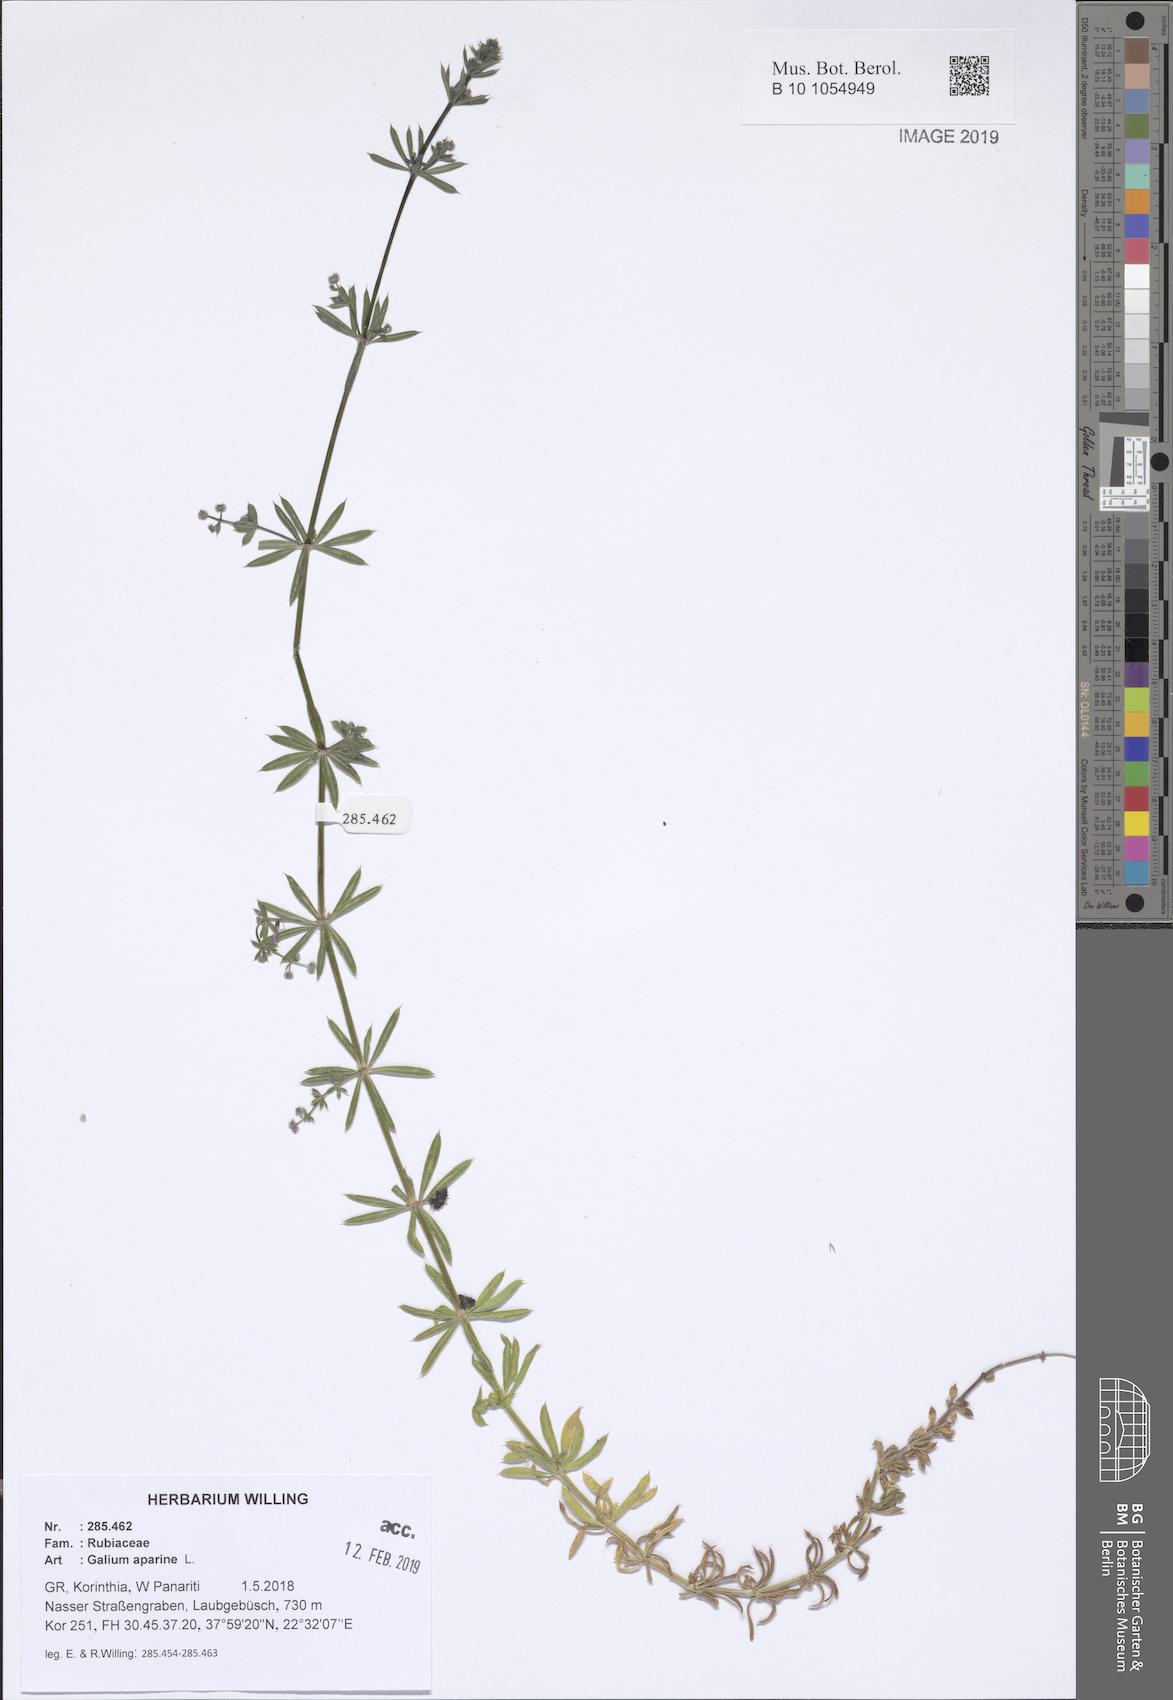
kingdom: Plantae
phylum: Tracheophyta
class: Magnoliopsida
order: Gentianales
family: Rubiaceae
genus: Galium
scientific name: Galium aparine
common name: Cleavers
